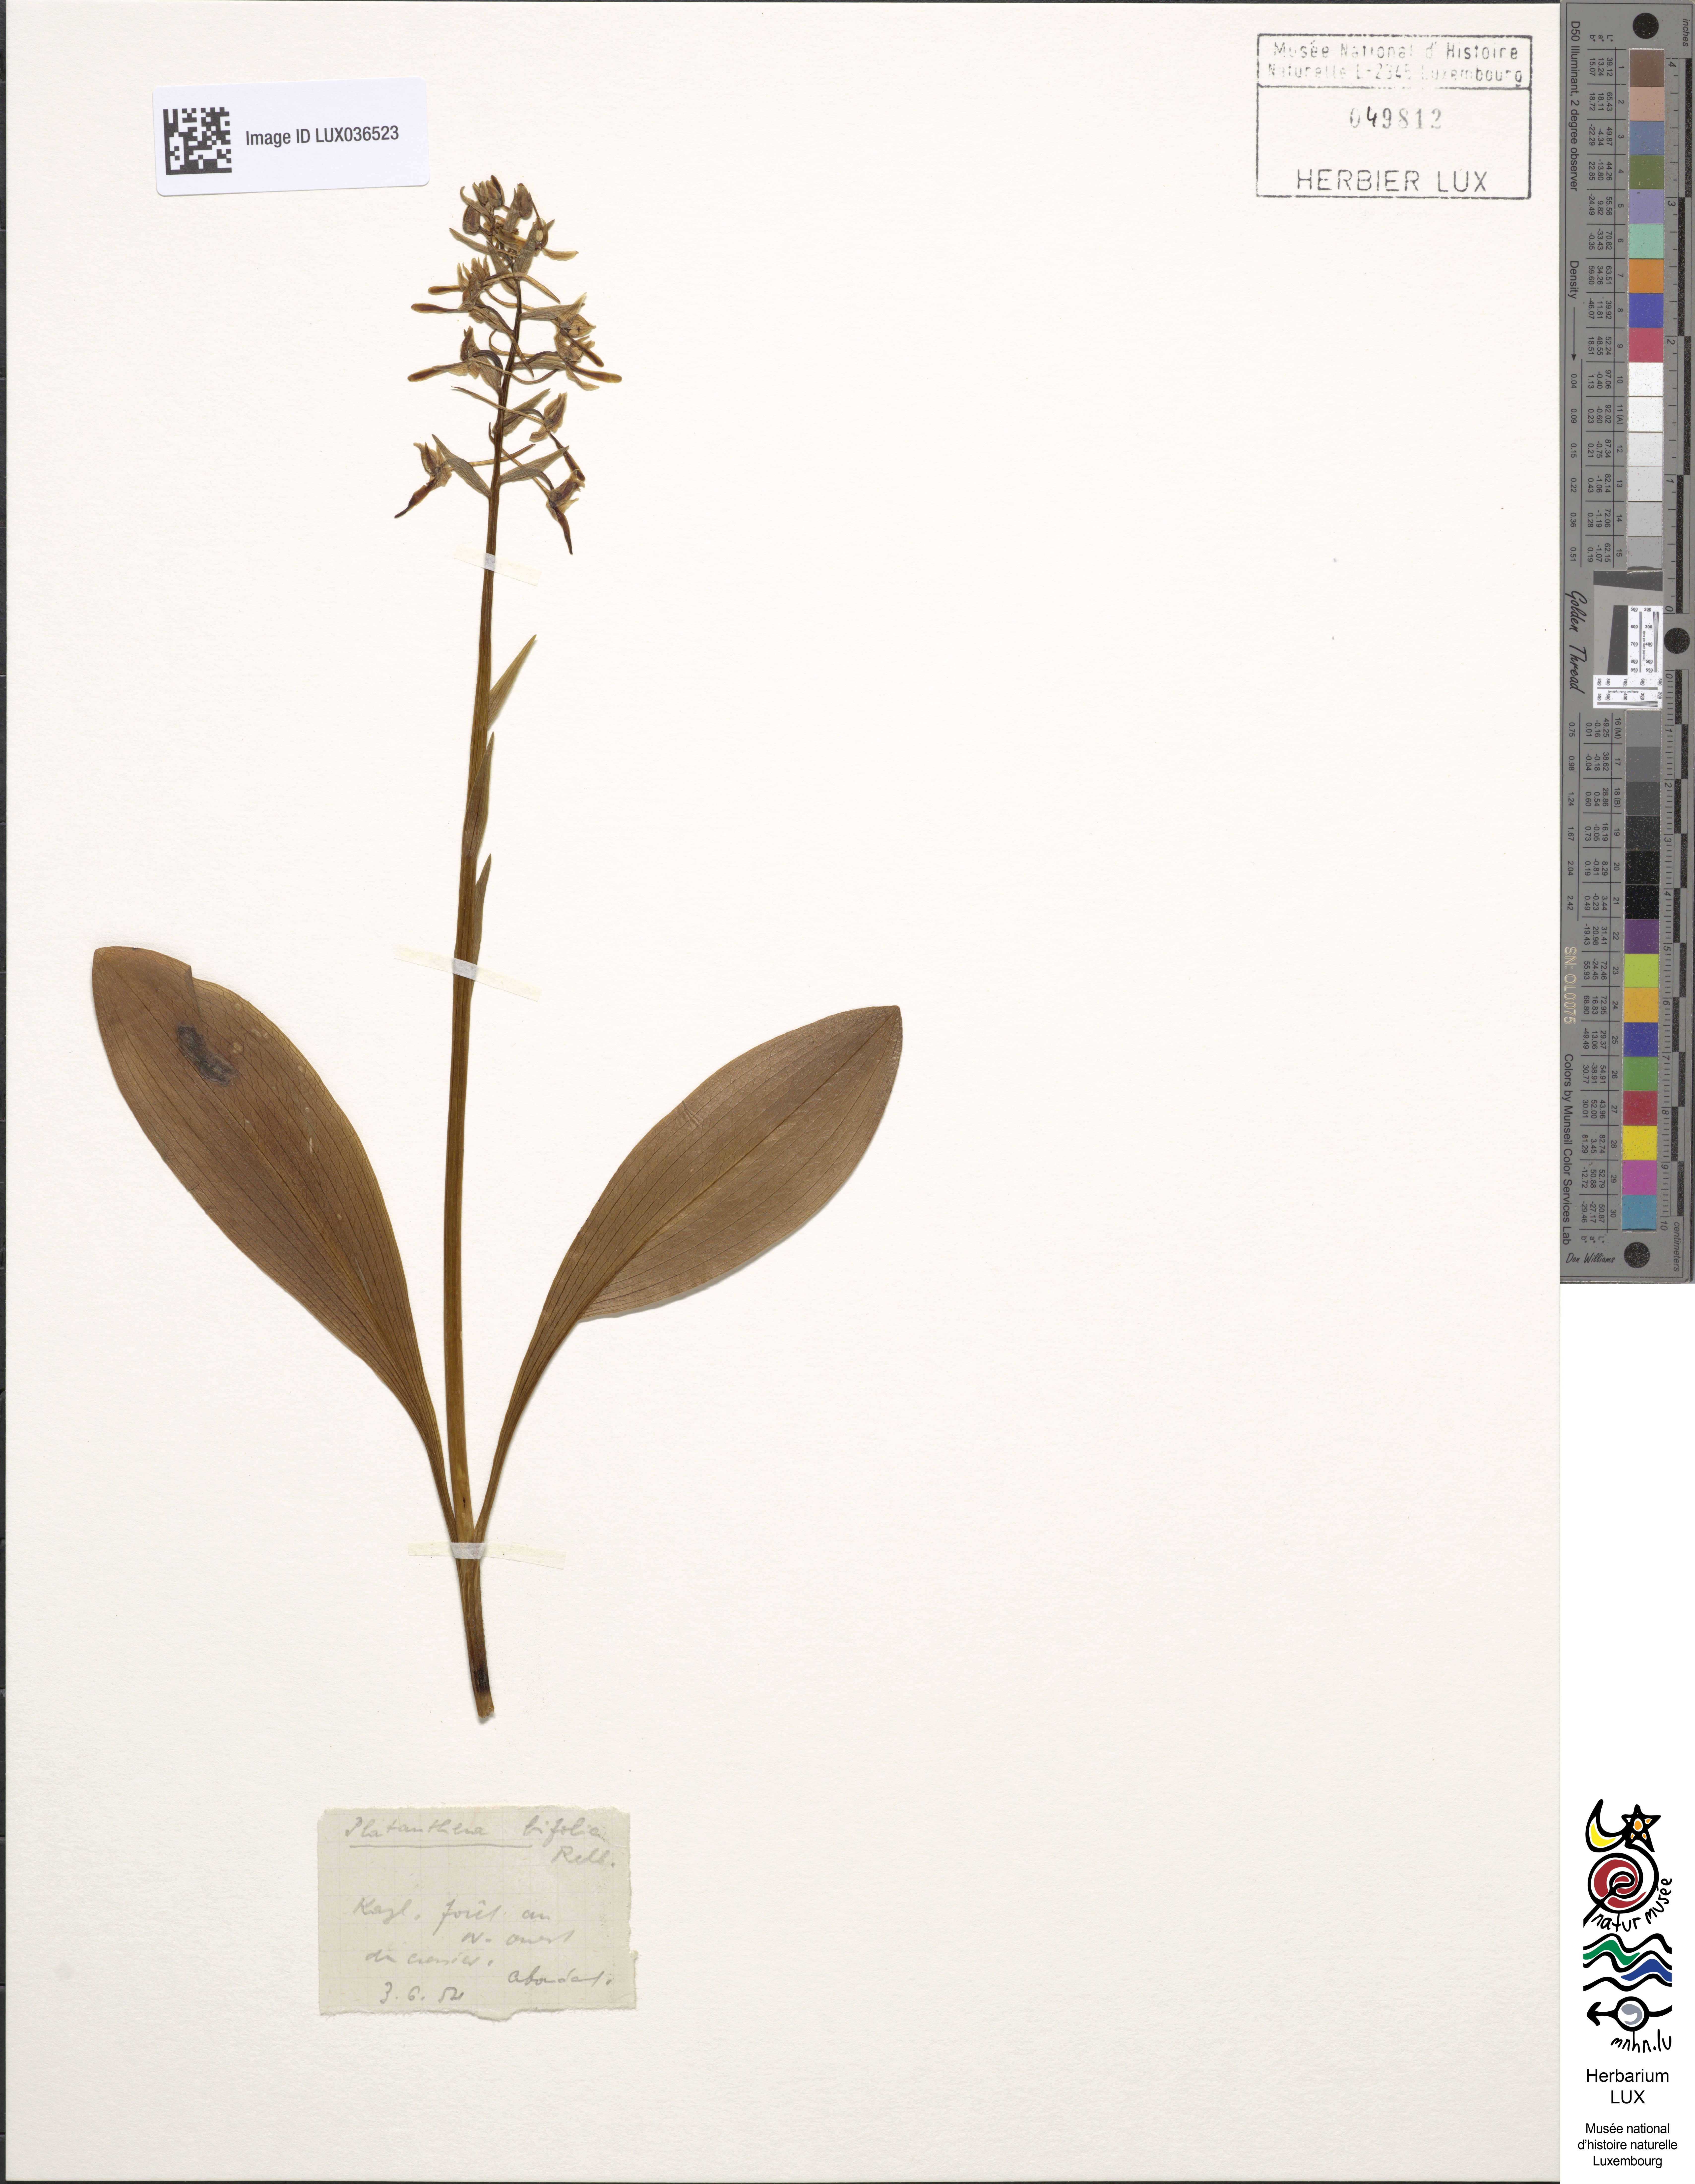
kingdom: Plantae
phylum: Tracheophyta
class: Liliopsida
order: Asparagales
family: Orchidaceae
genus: Platanthera
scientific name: Platanthera bifolia
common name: Lesser butterfly-orchid
